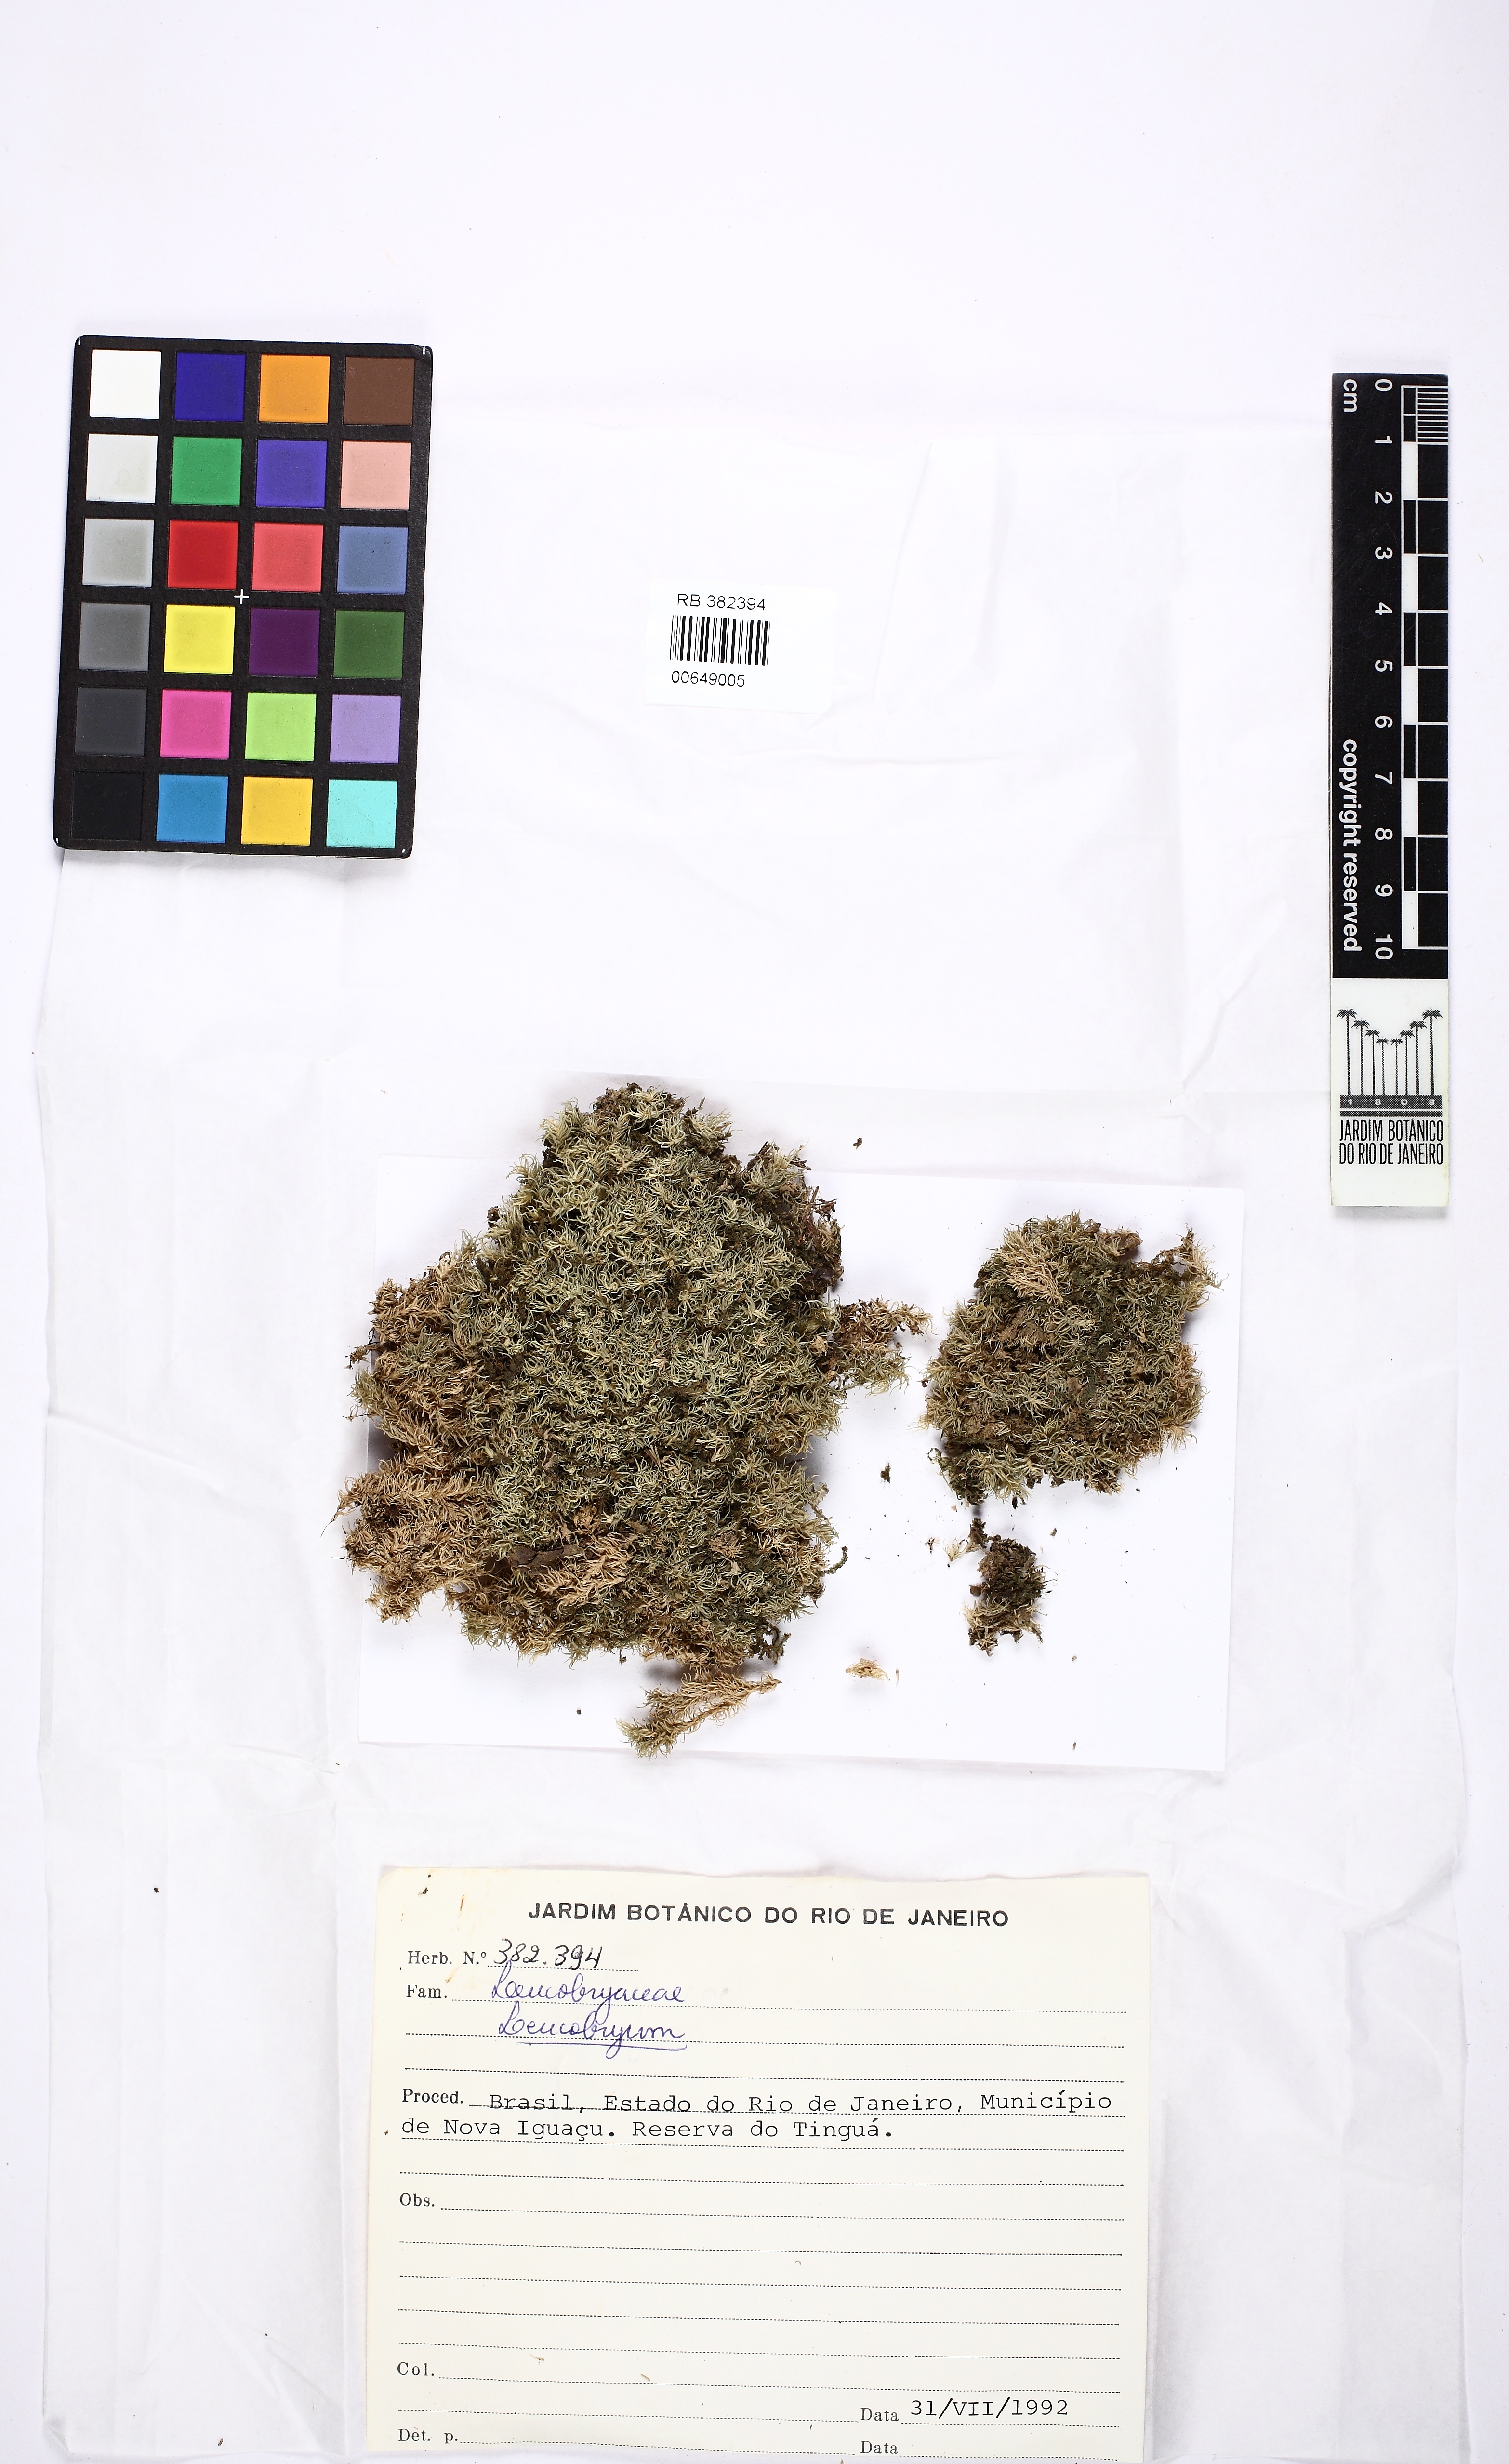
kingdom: Plantae
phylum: Bryophyta
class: Bryopsida
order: Dicranales
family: Leucobryaceae
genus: Leucobryum
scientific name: Leucobryum
